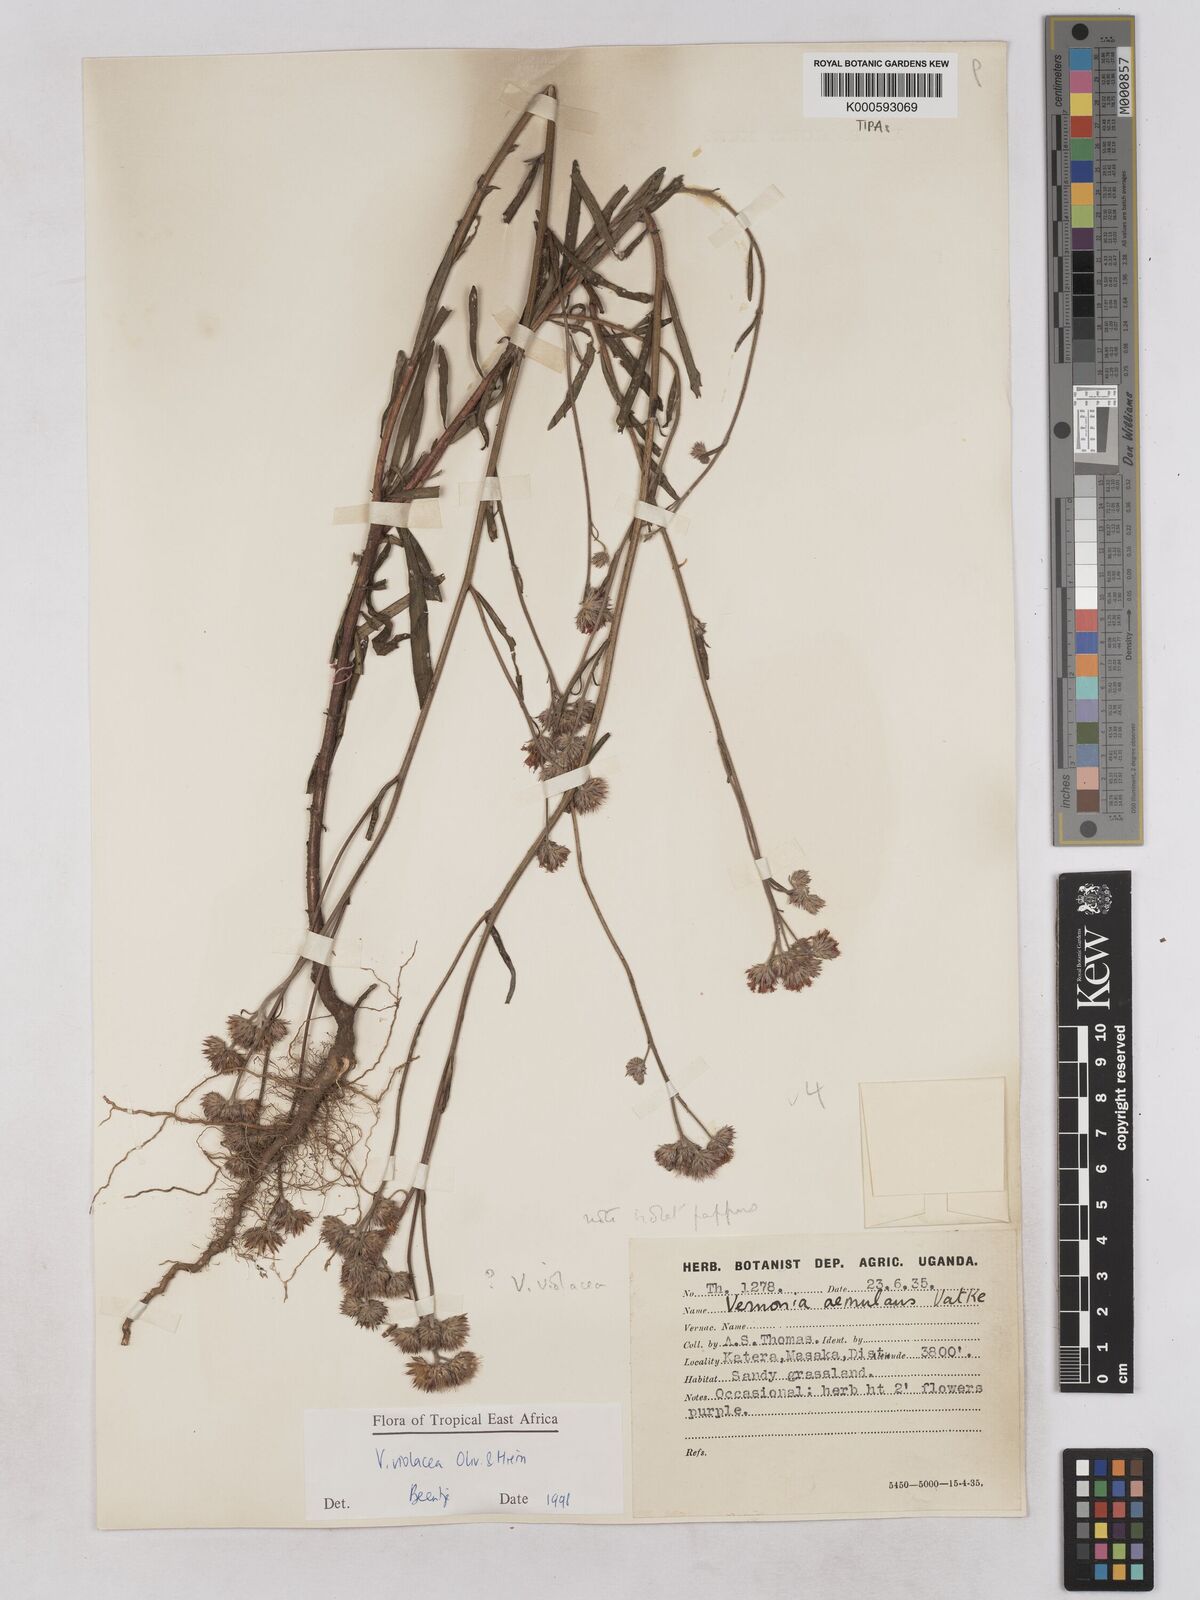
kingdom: Plantae
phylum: Tracheophyta
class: Magnoliopsida
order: Asterales
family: Asteraceae
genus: Vernonia
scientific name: Vernonia violacea
